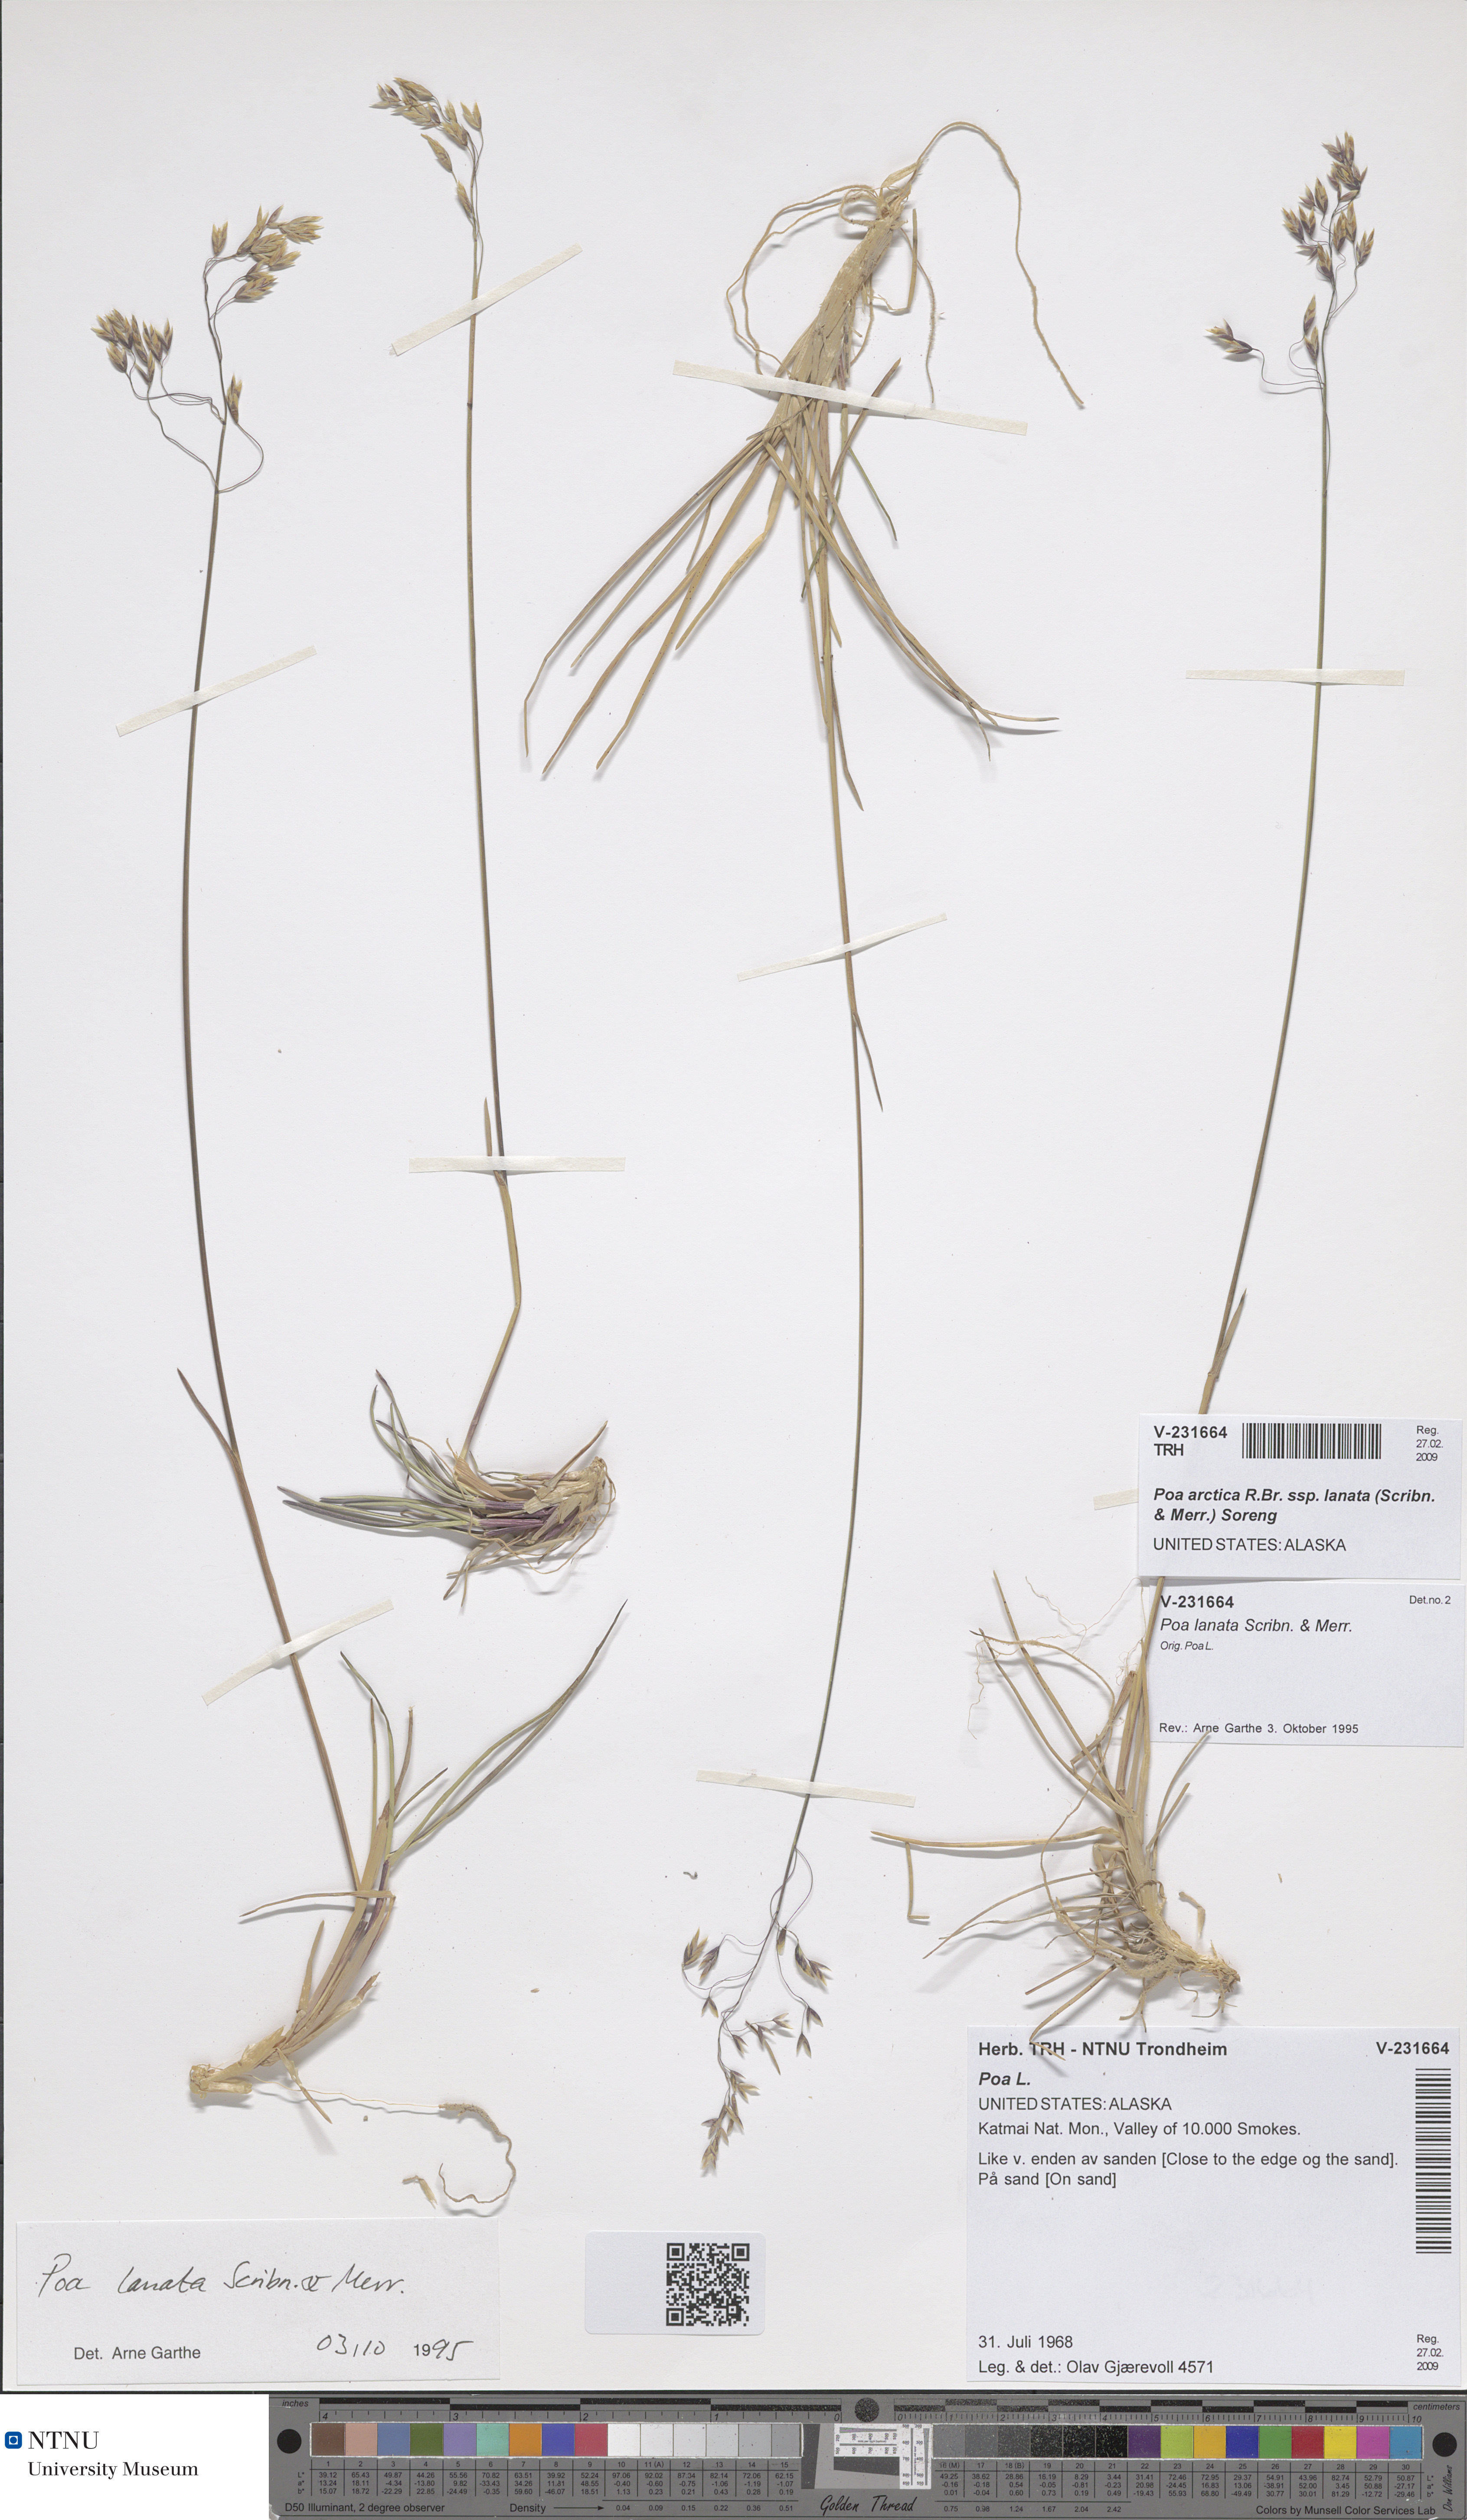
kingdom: Plantae
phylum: Tracheophyta
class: Liliopsida
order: Poales
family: Poaceae
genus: Poa
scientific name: Poa lanata
